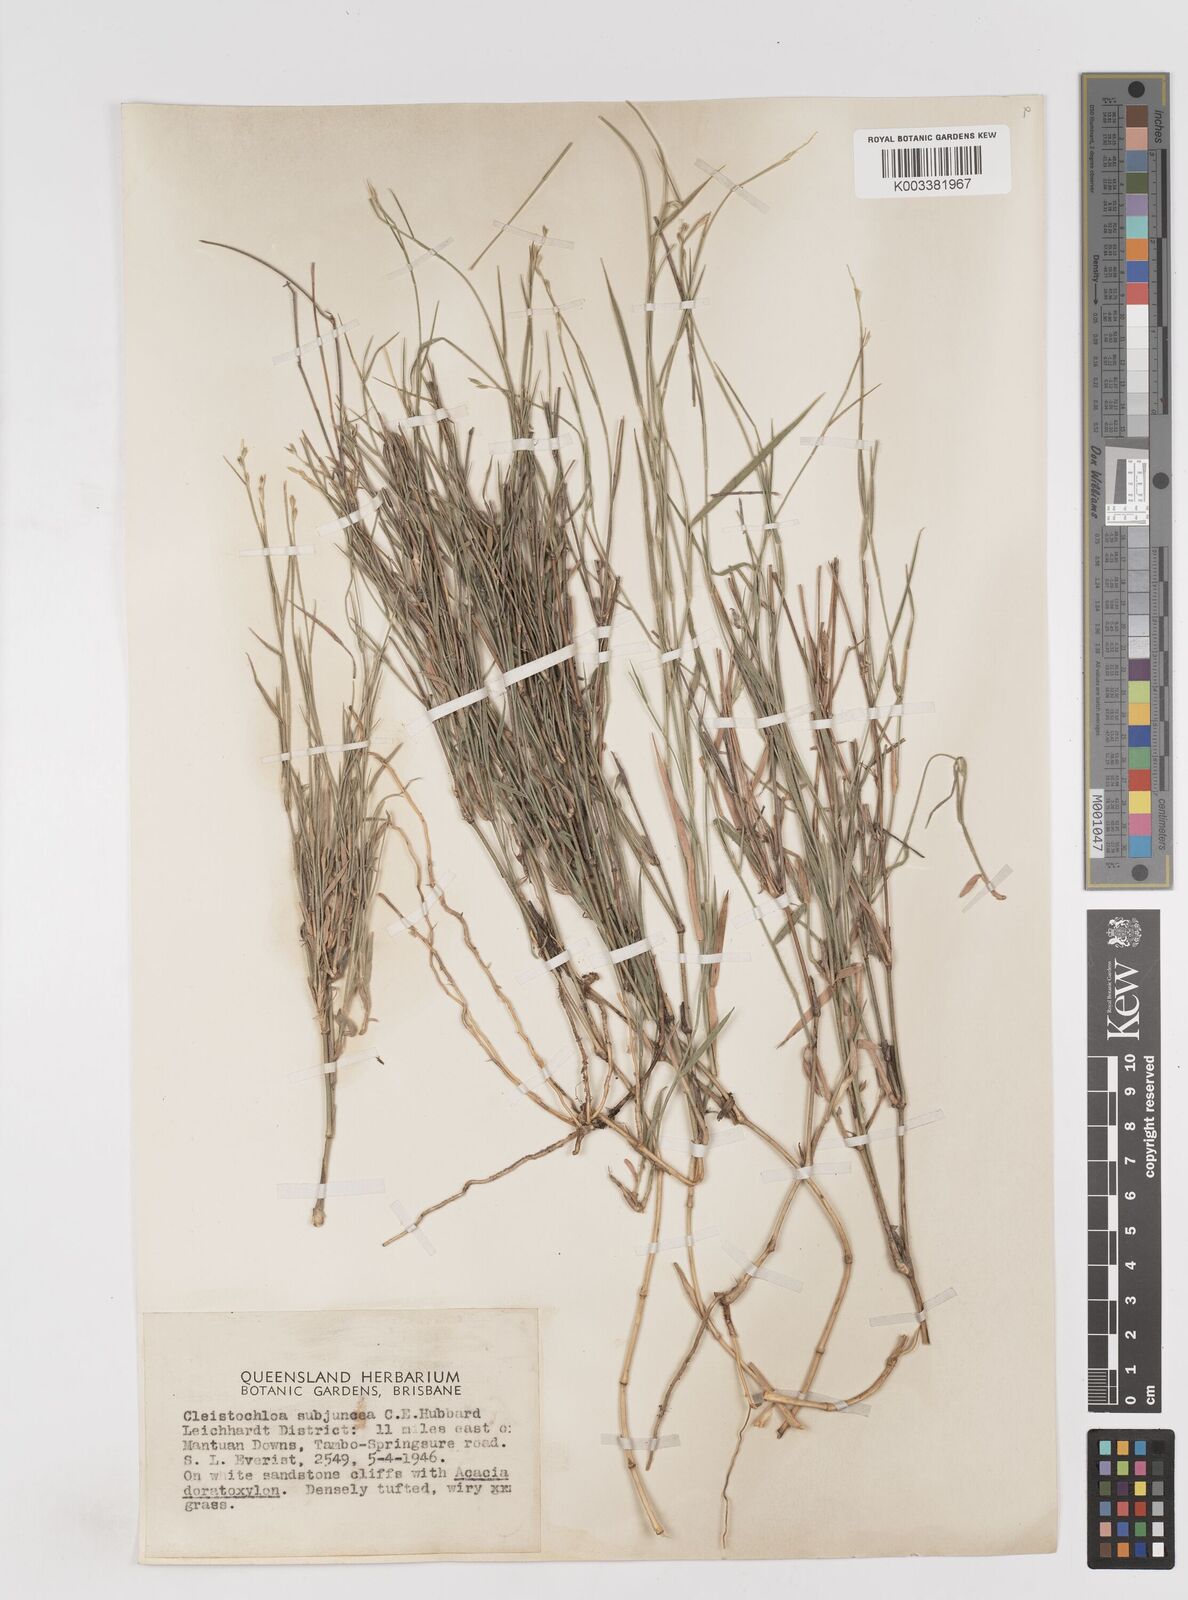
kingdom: Plantae
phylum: Tracheophyta
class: Liliopsida
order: Poales
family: Poaceae
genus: Cleistochloa
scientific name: Cleistochloa subjuncea
